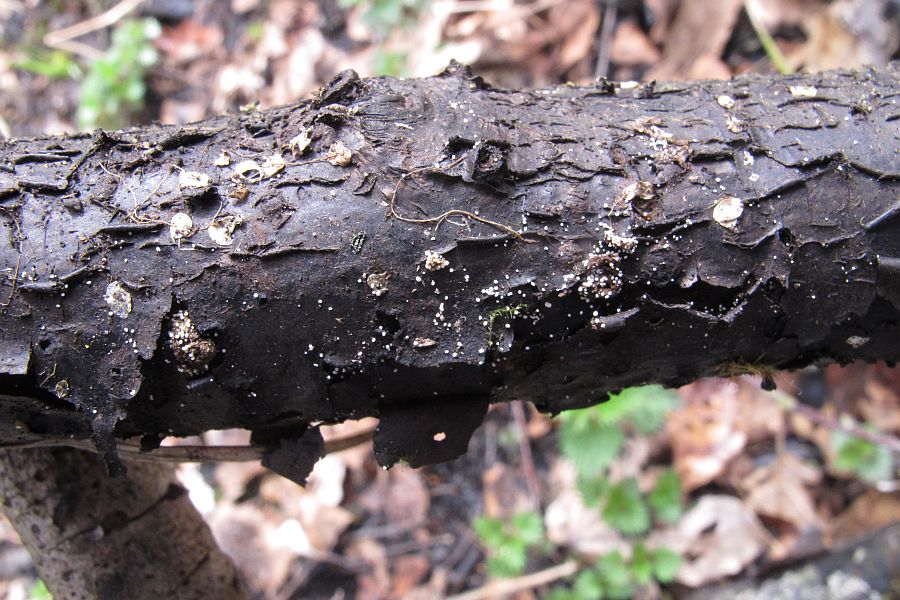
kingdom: Fungi
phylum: Basidiomycota
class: Agaricomycetes
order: Polyporales
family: Meruliaceae
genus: Bulbillomyces
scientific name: Bulbillomyces farinosus
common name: æg-kalkskind
